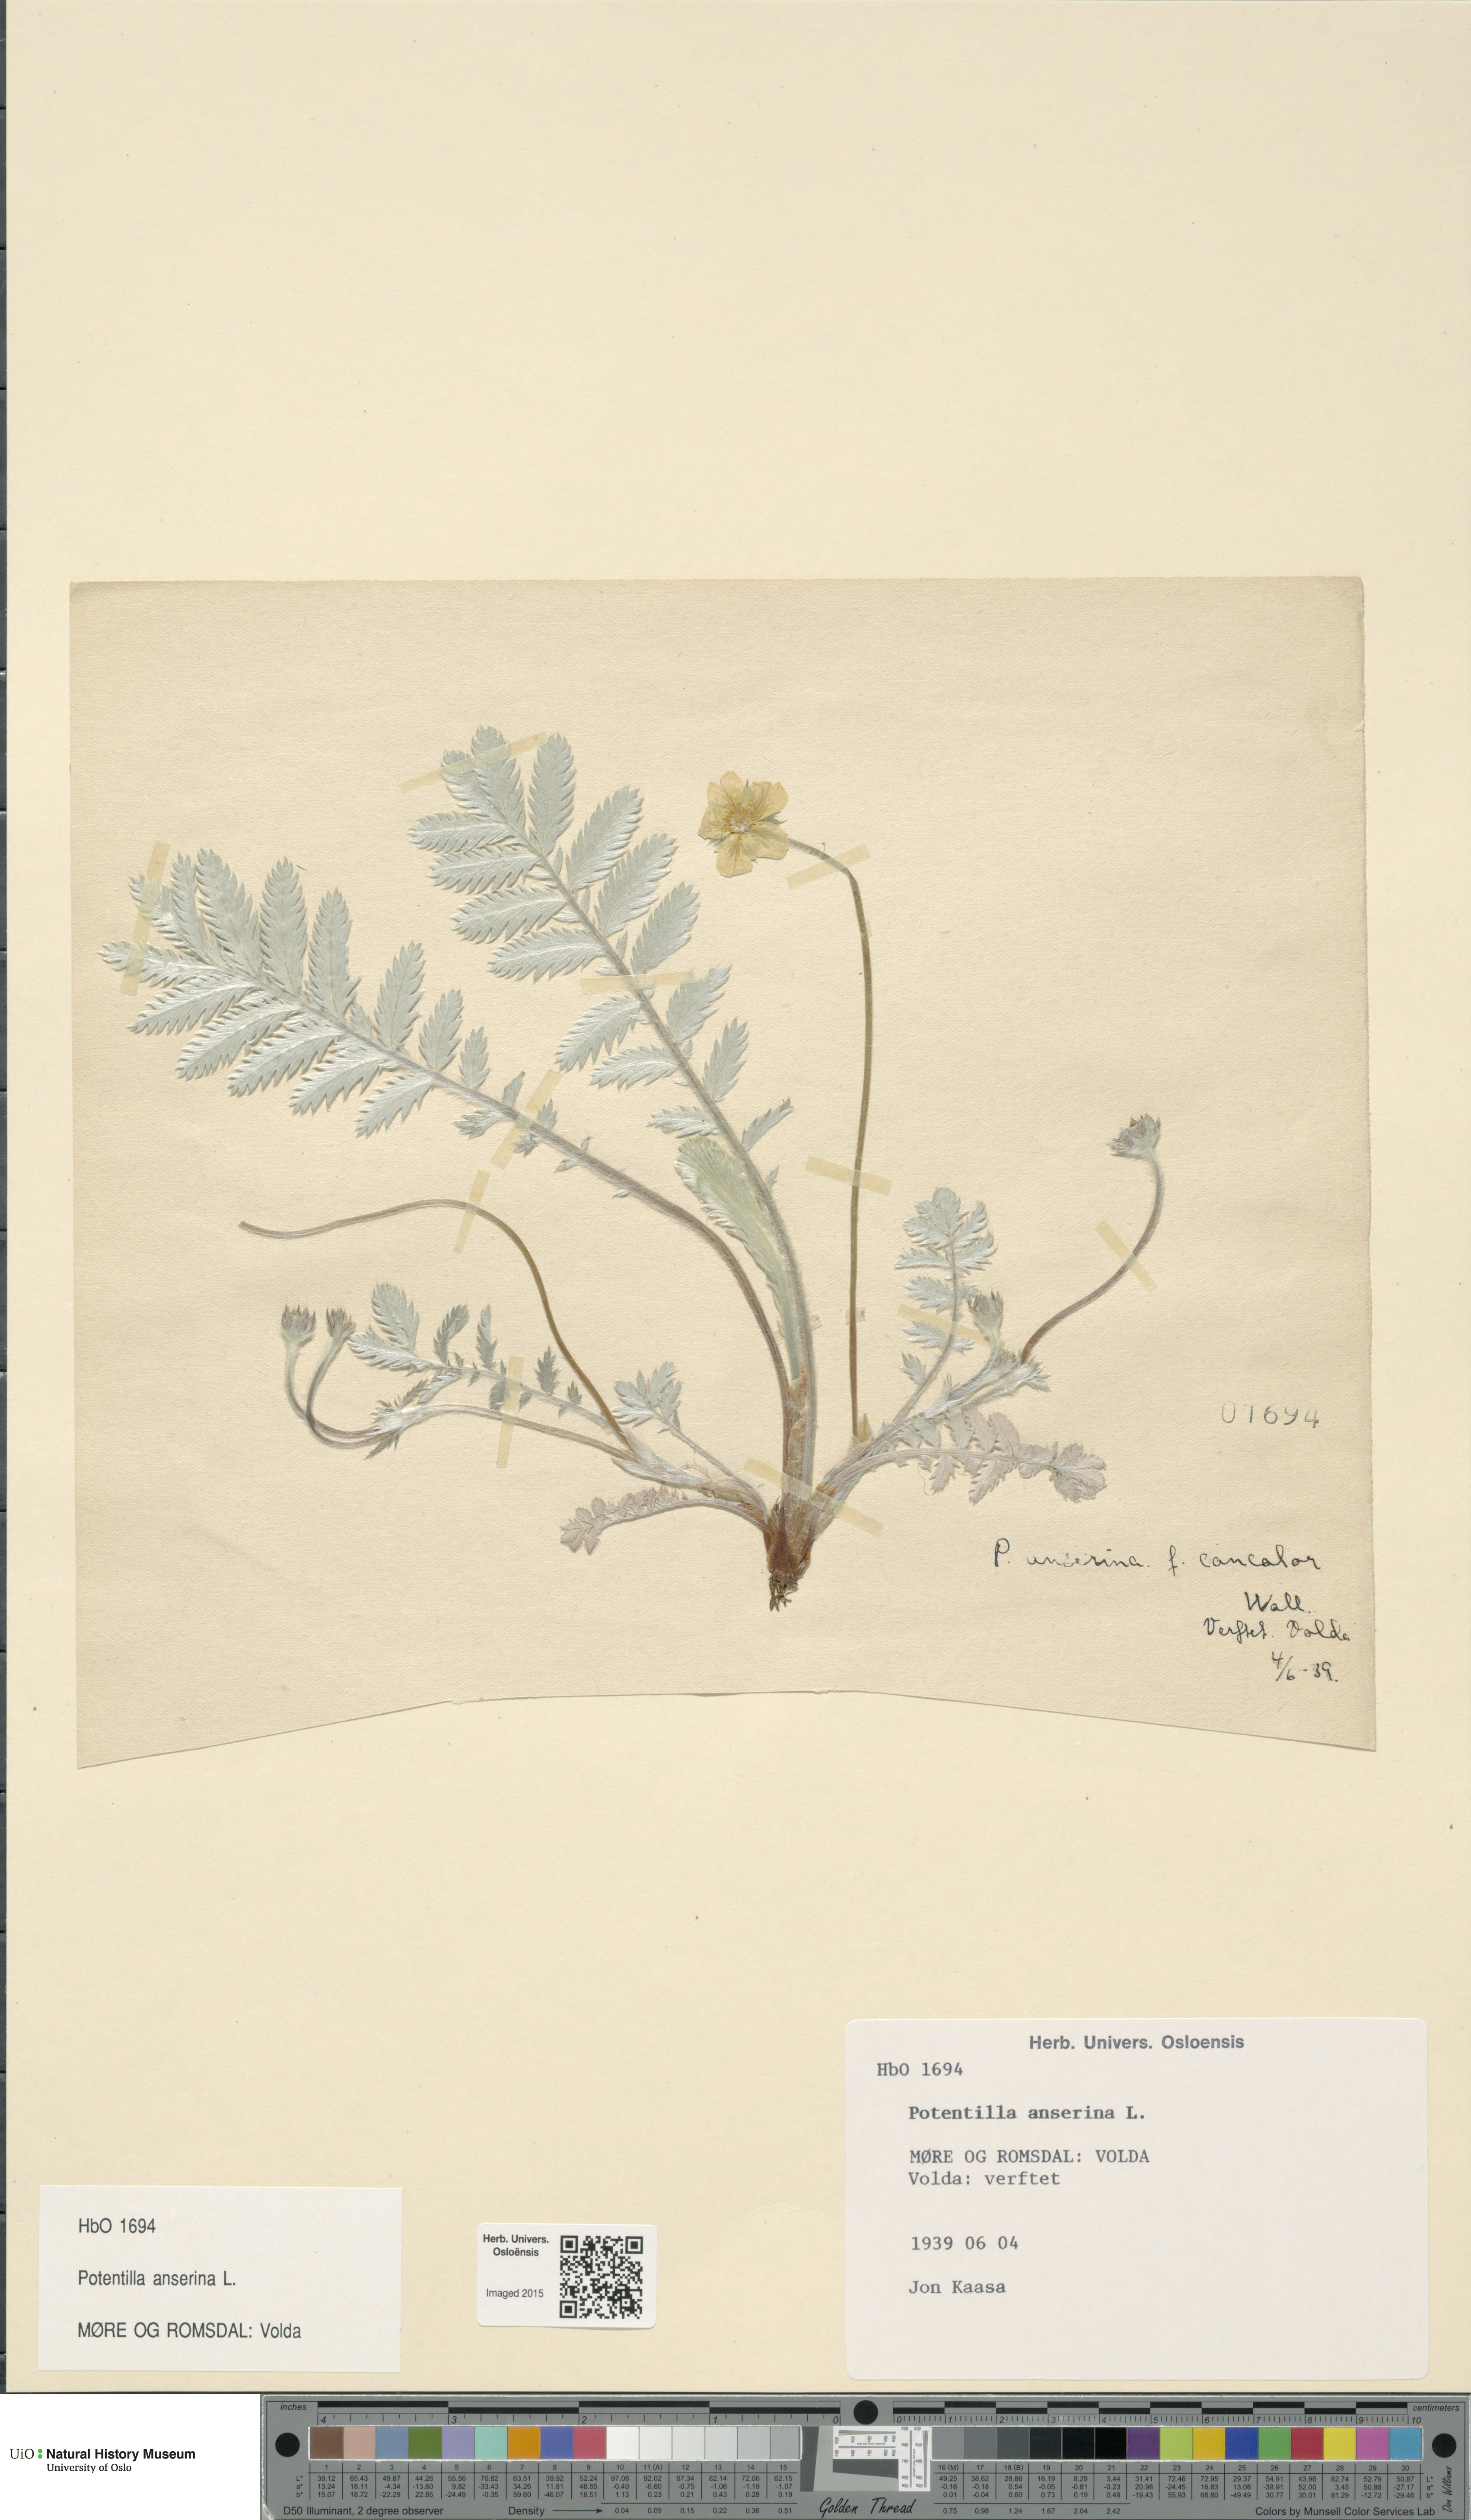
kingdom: Plantae
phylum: Tracheophyta
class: Magnoliopsida
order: Rosales
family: Rosaceae
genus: Argentina
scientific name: Argentina anserina
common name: Common silverweed
